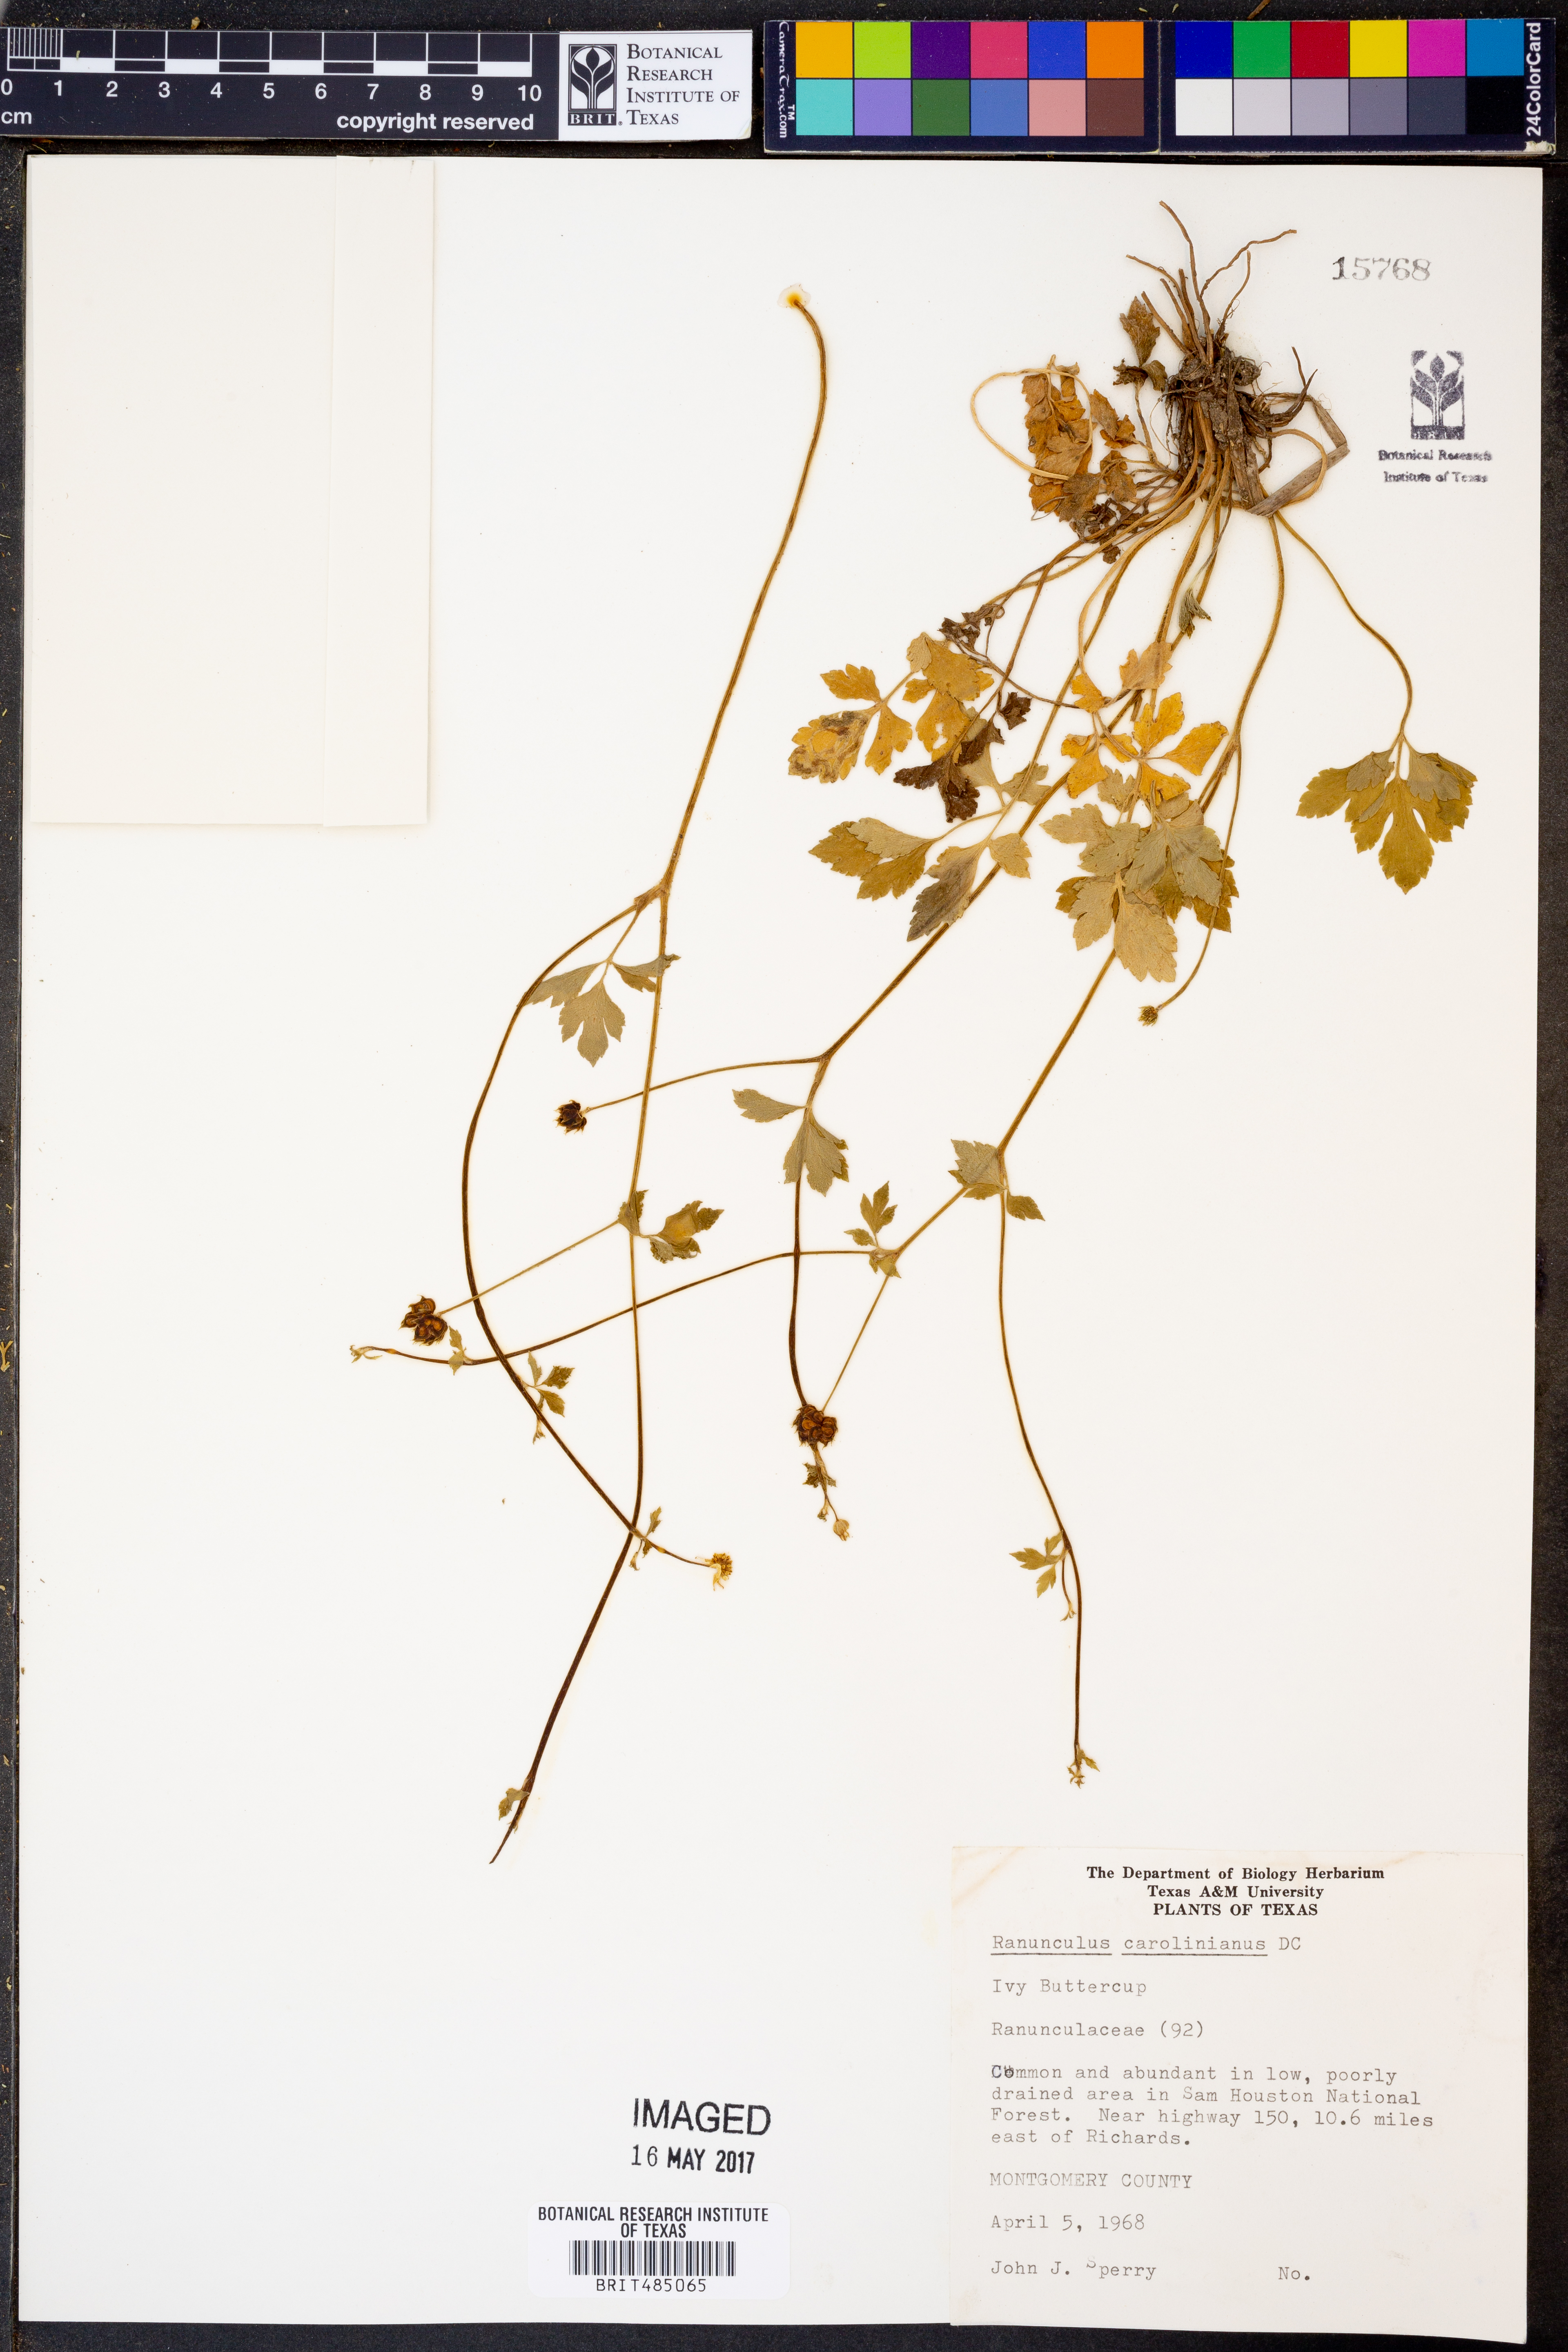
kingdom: Plantae
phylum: Tracheophyta
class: Magnoliopsida
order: Ranunculales
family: Ranunculaceae
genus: Ranunculus
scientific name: Ranunculus hispidus
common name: Bristly buttercup
